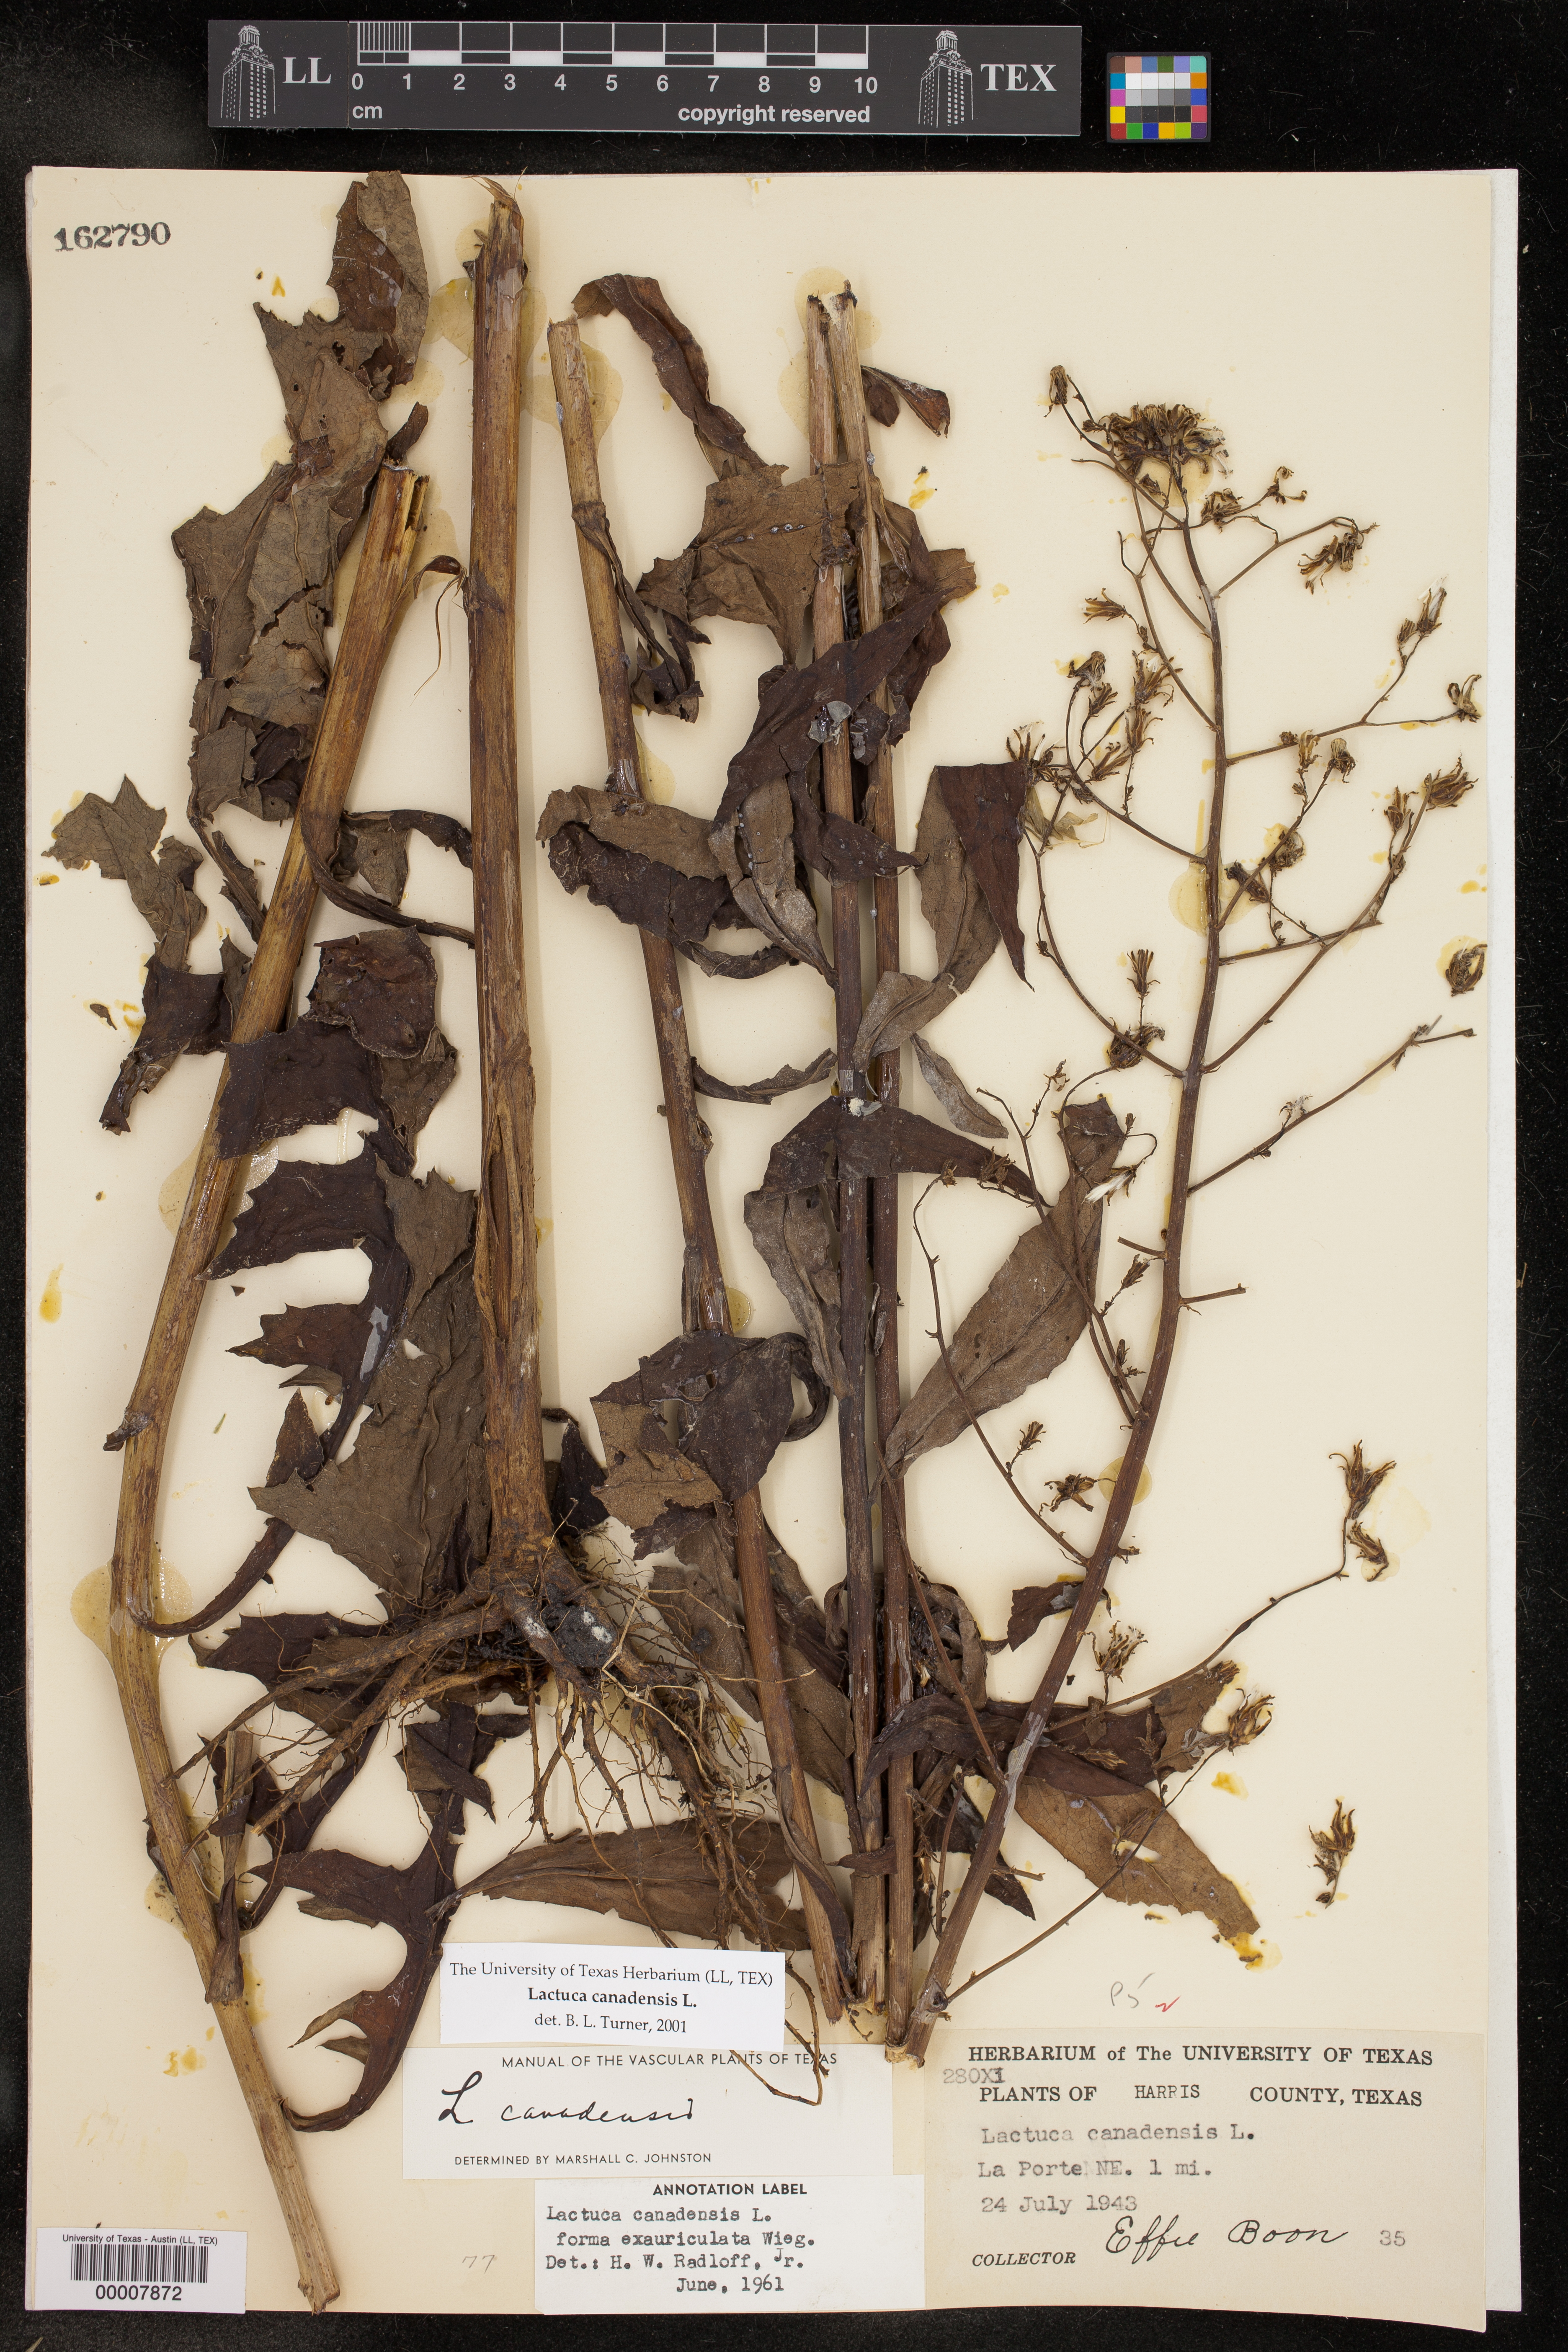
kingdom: Plantae
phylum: Tracheophyta
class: Magnoliopsida
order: Asterales
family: Asteraceae
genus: Lactuca
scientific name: Lactuca canadensis
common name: Canada lettuce
